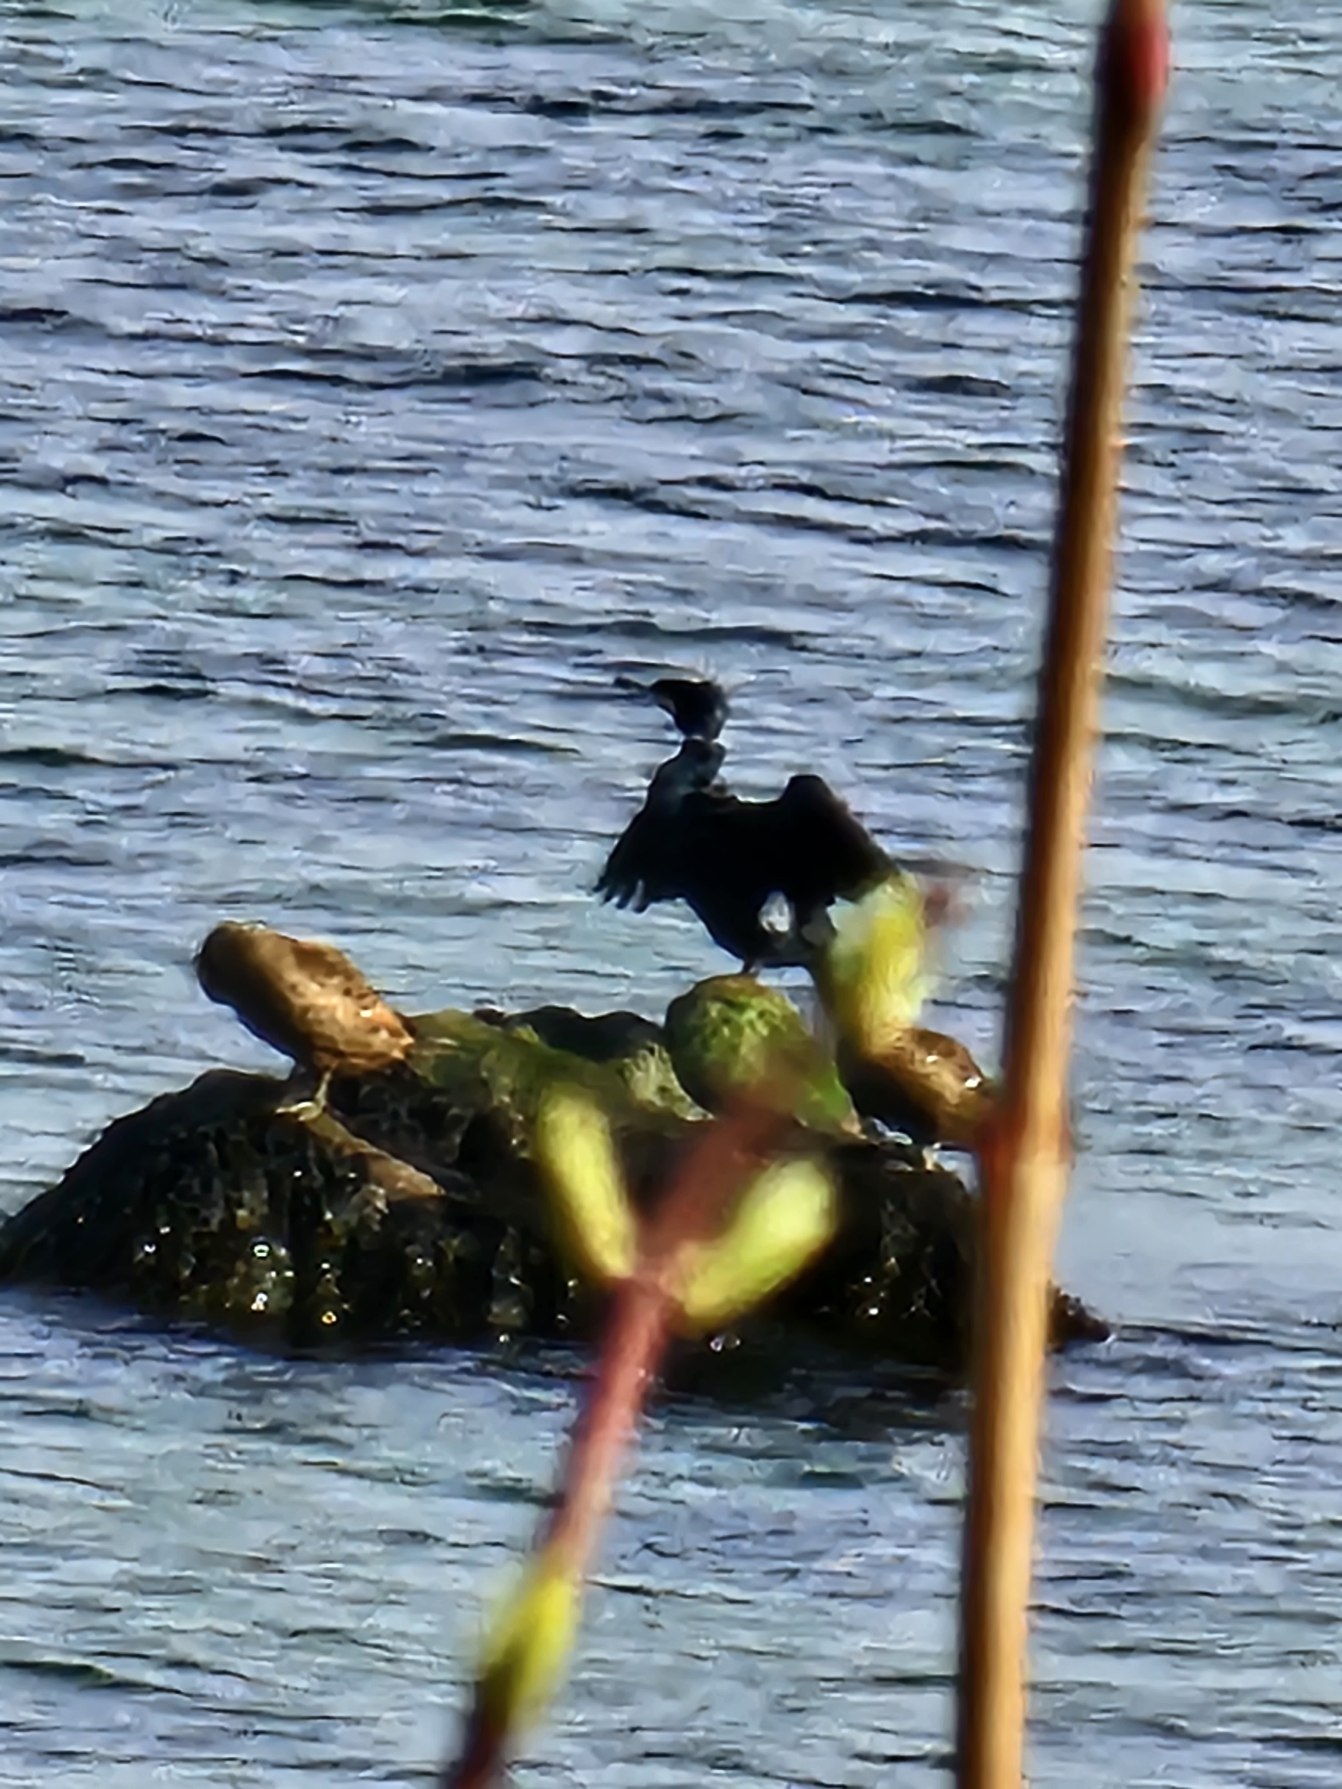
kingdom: Animalia
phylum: Chordata
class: Aves
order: Suliformes
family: Phalacrocoracidae
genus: Phalacrocorax
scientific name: Phalacrocorax carbo
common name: Skarv
